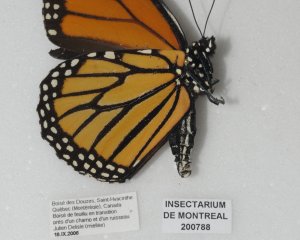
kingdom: Animalia
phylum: Arthropoda
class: Insecta
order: Lepidoptera
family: Nymphalidae
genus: Danaus
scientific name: Danaus plexippus
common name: Monarch
